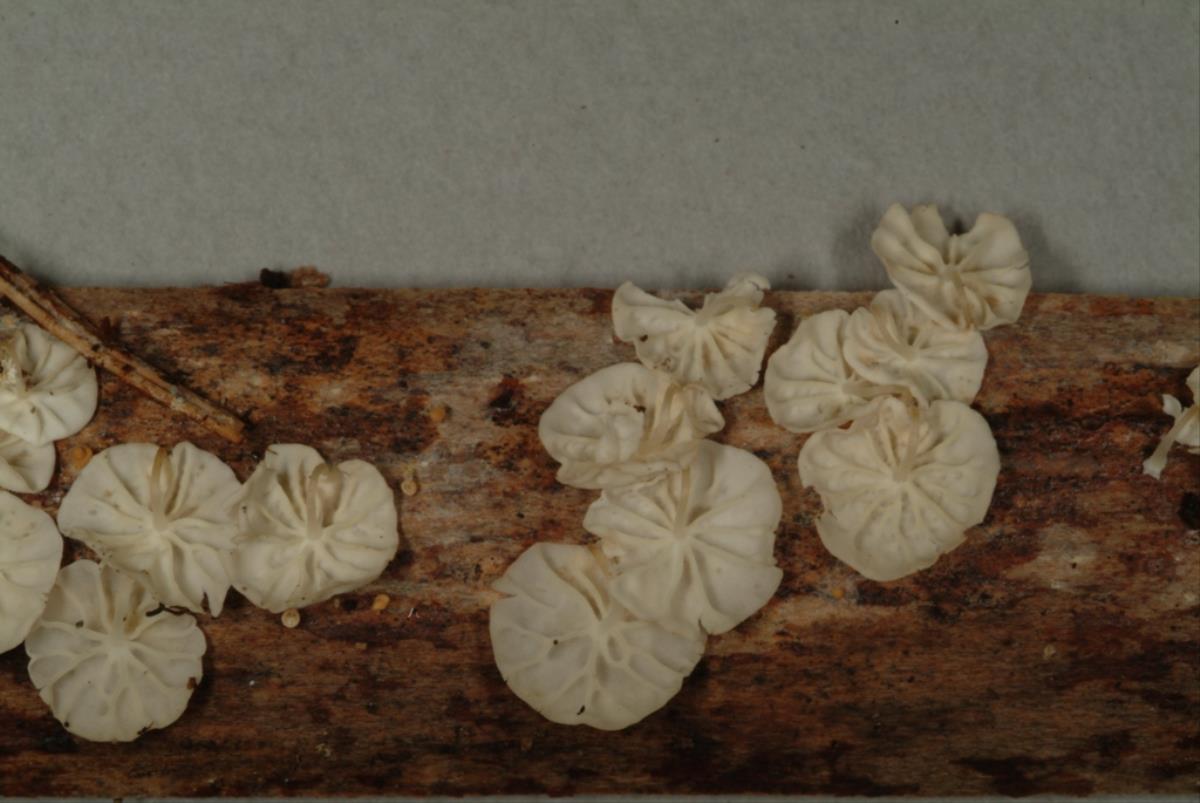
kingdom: Fungi
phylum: Basidiomycota
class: Agaricomycetes
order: Agaricales
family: Marasmiaceae
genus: Marasmius
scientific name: Marasmius
